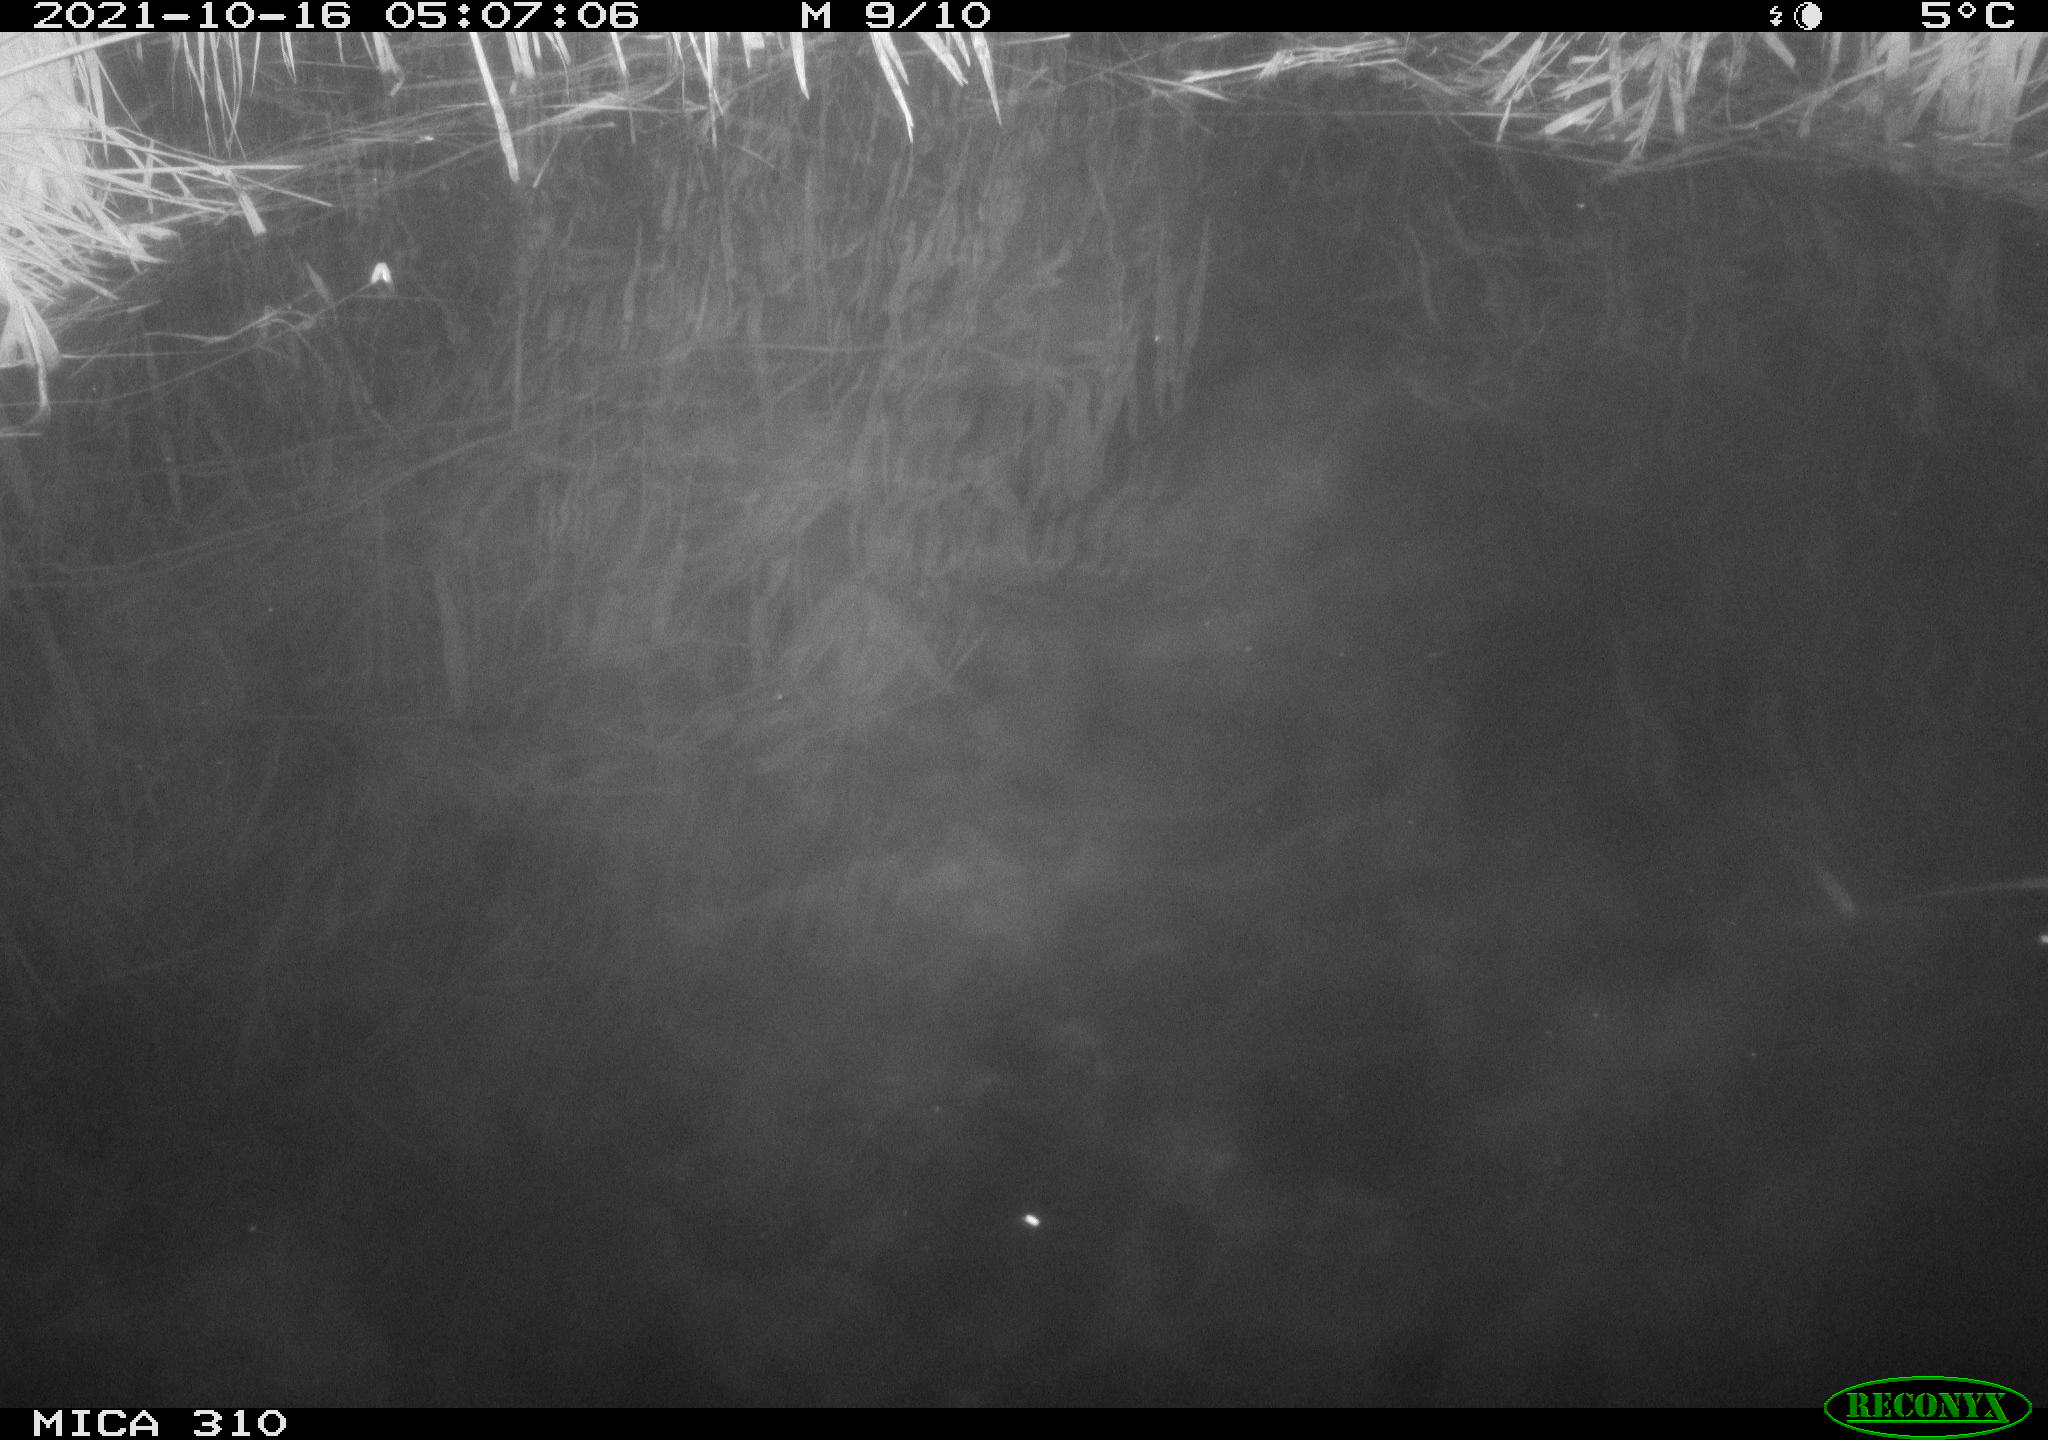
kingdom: Animalia
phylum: Chordata
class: Mammalia
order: Rodentia
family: Muridae
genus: Rattus
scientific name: Rattus norvegicus
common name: Brown rat
